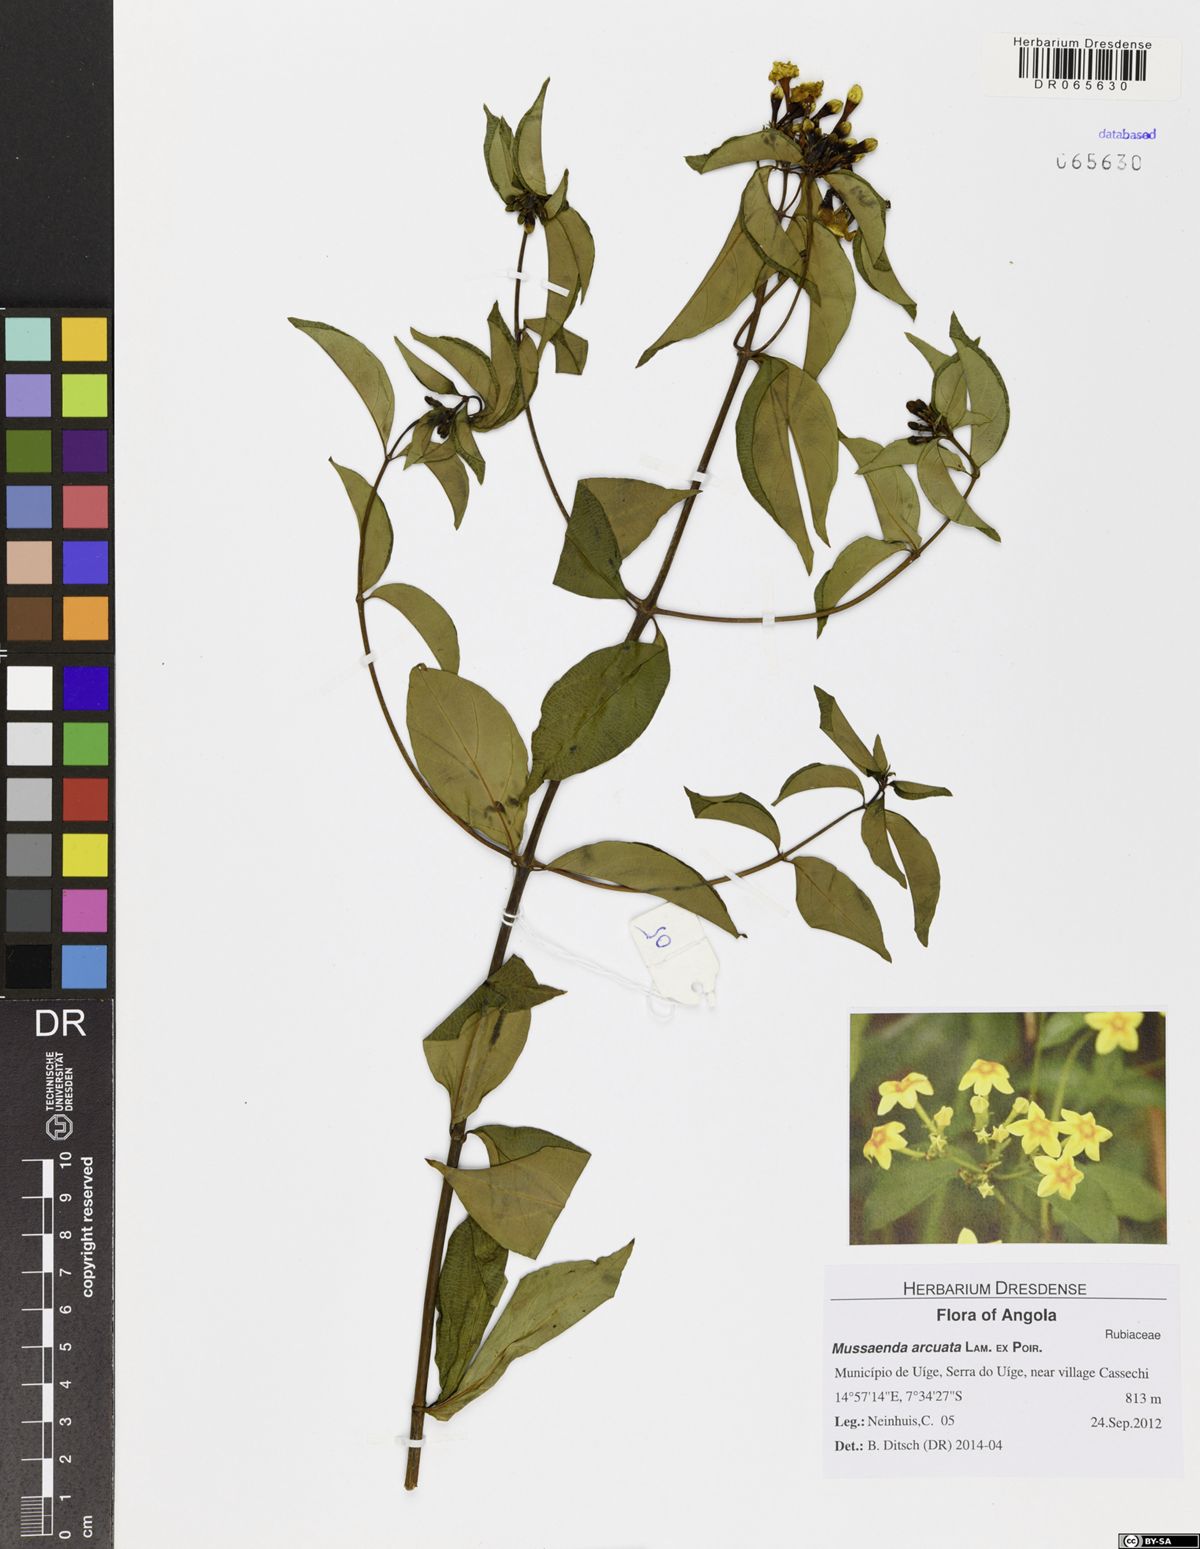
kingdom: Plantae
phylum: Tracheophyta
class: Magnoliopsida
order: Gentianales
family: Rubiaceae
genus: Mussaenda
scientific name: Mussaenda arcuata
